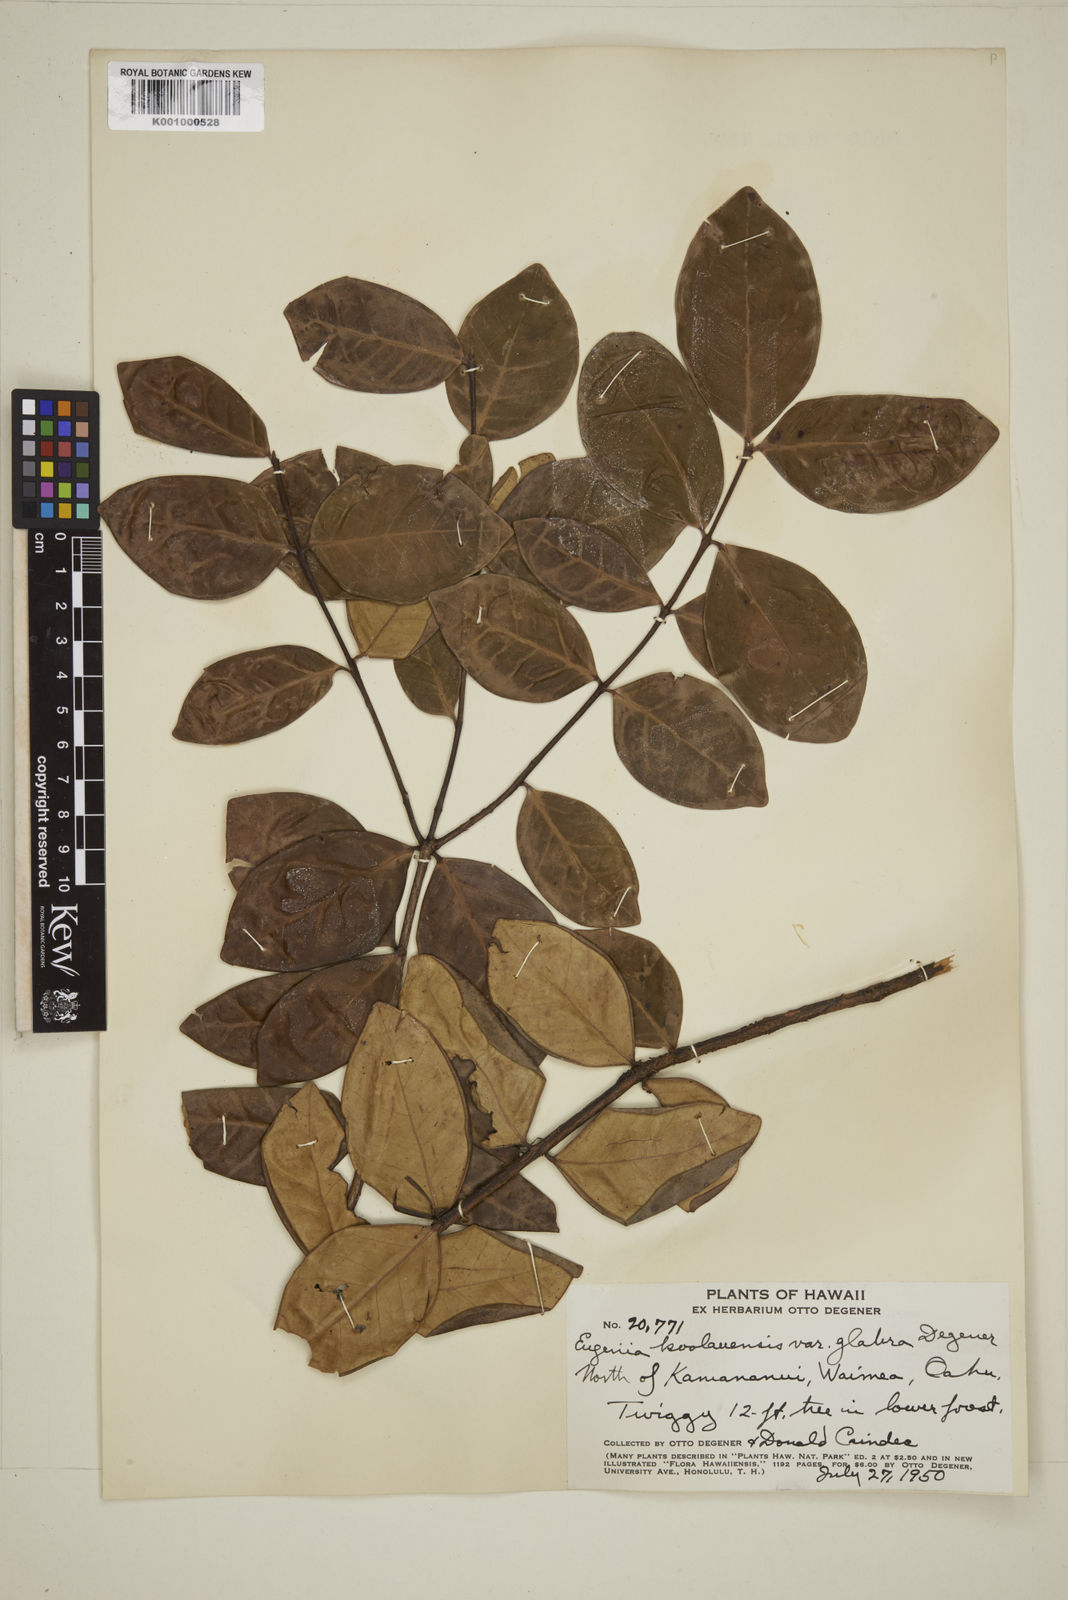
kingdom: Plantae
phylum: Tracheophyta
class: Magnoliopsida
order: Myrtales
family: Myrtaceae
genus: Eugenia
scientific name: Eugenia koolauensis
